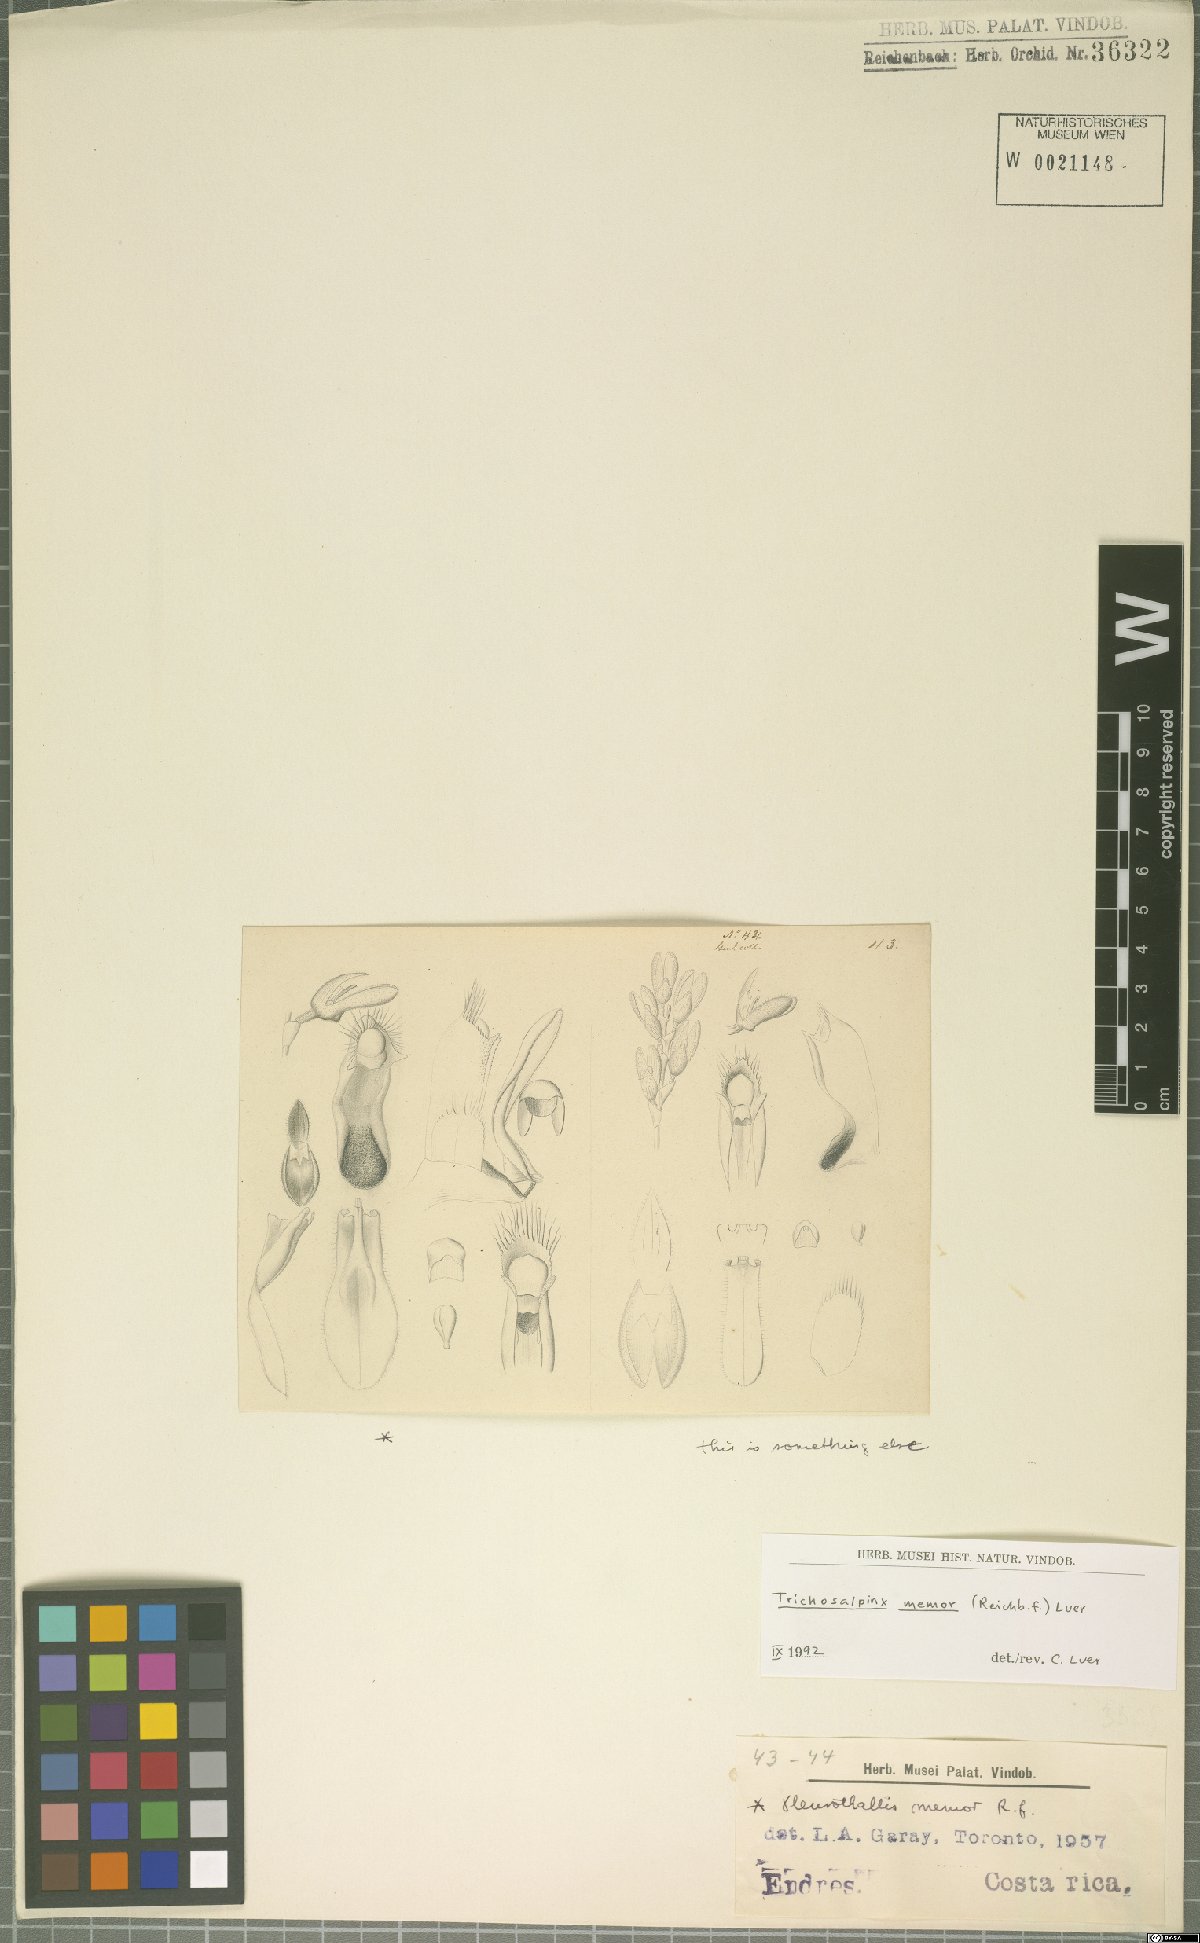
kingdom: Plantae
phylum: Tracheophyta
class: Liliopsida
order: Asparagales
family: Orchidaceae
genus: Trichosalpinx
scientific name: Trichosalpinx memor
